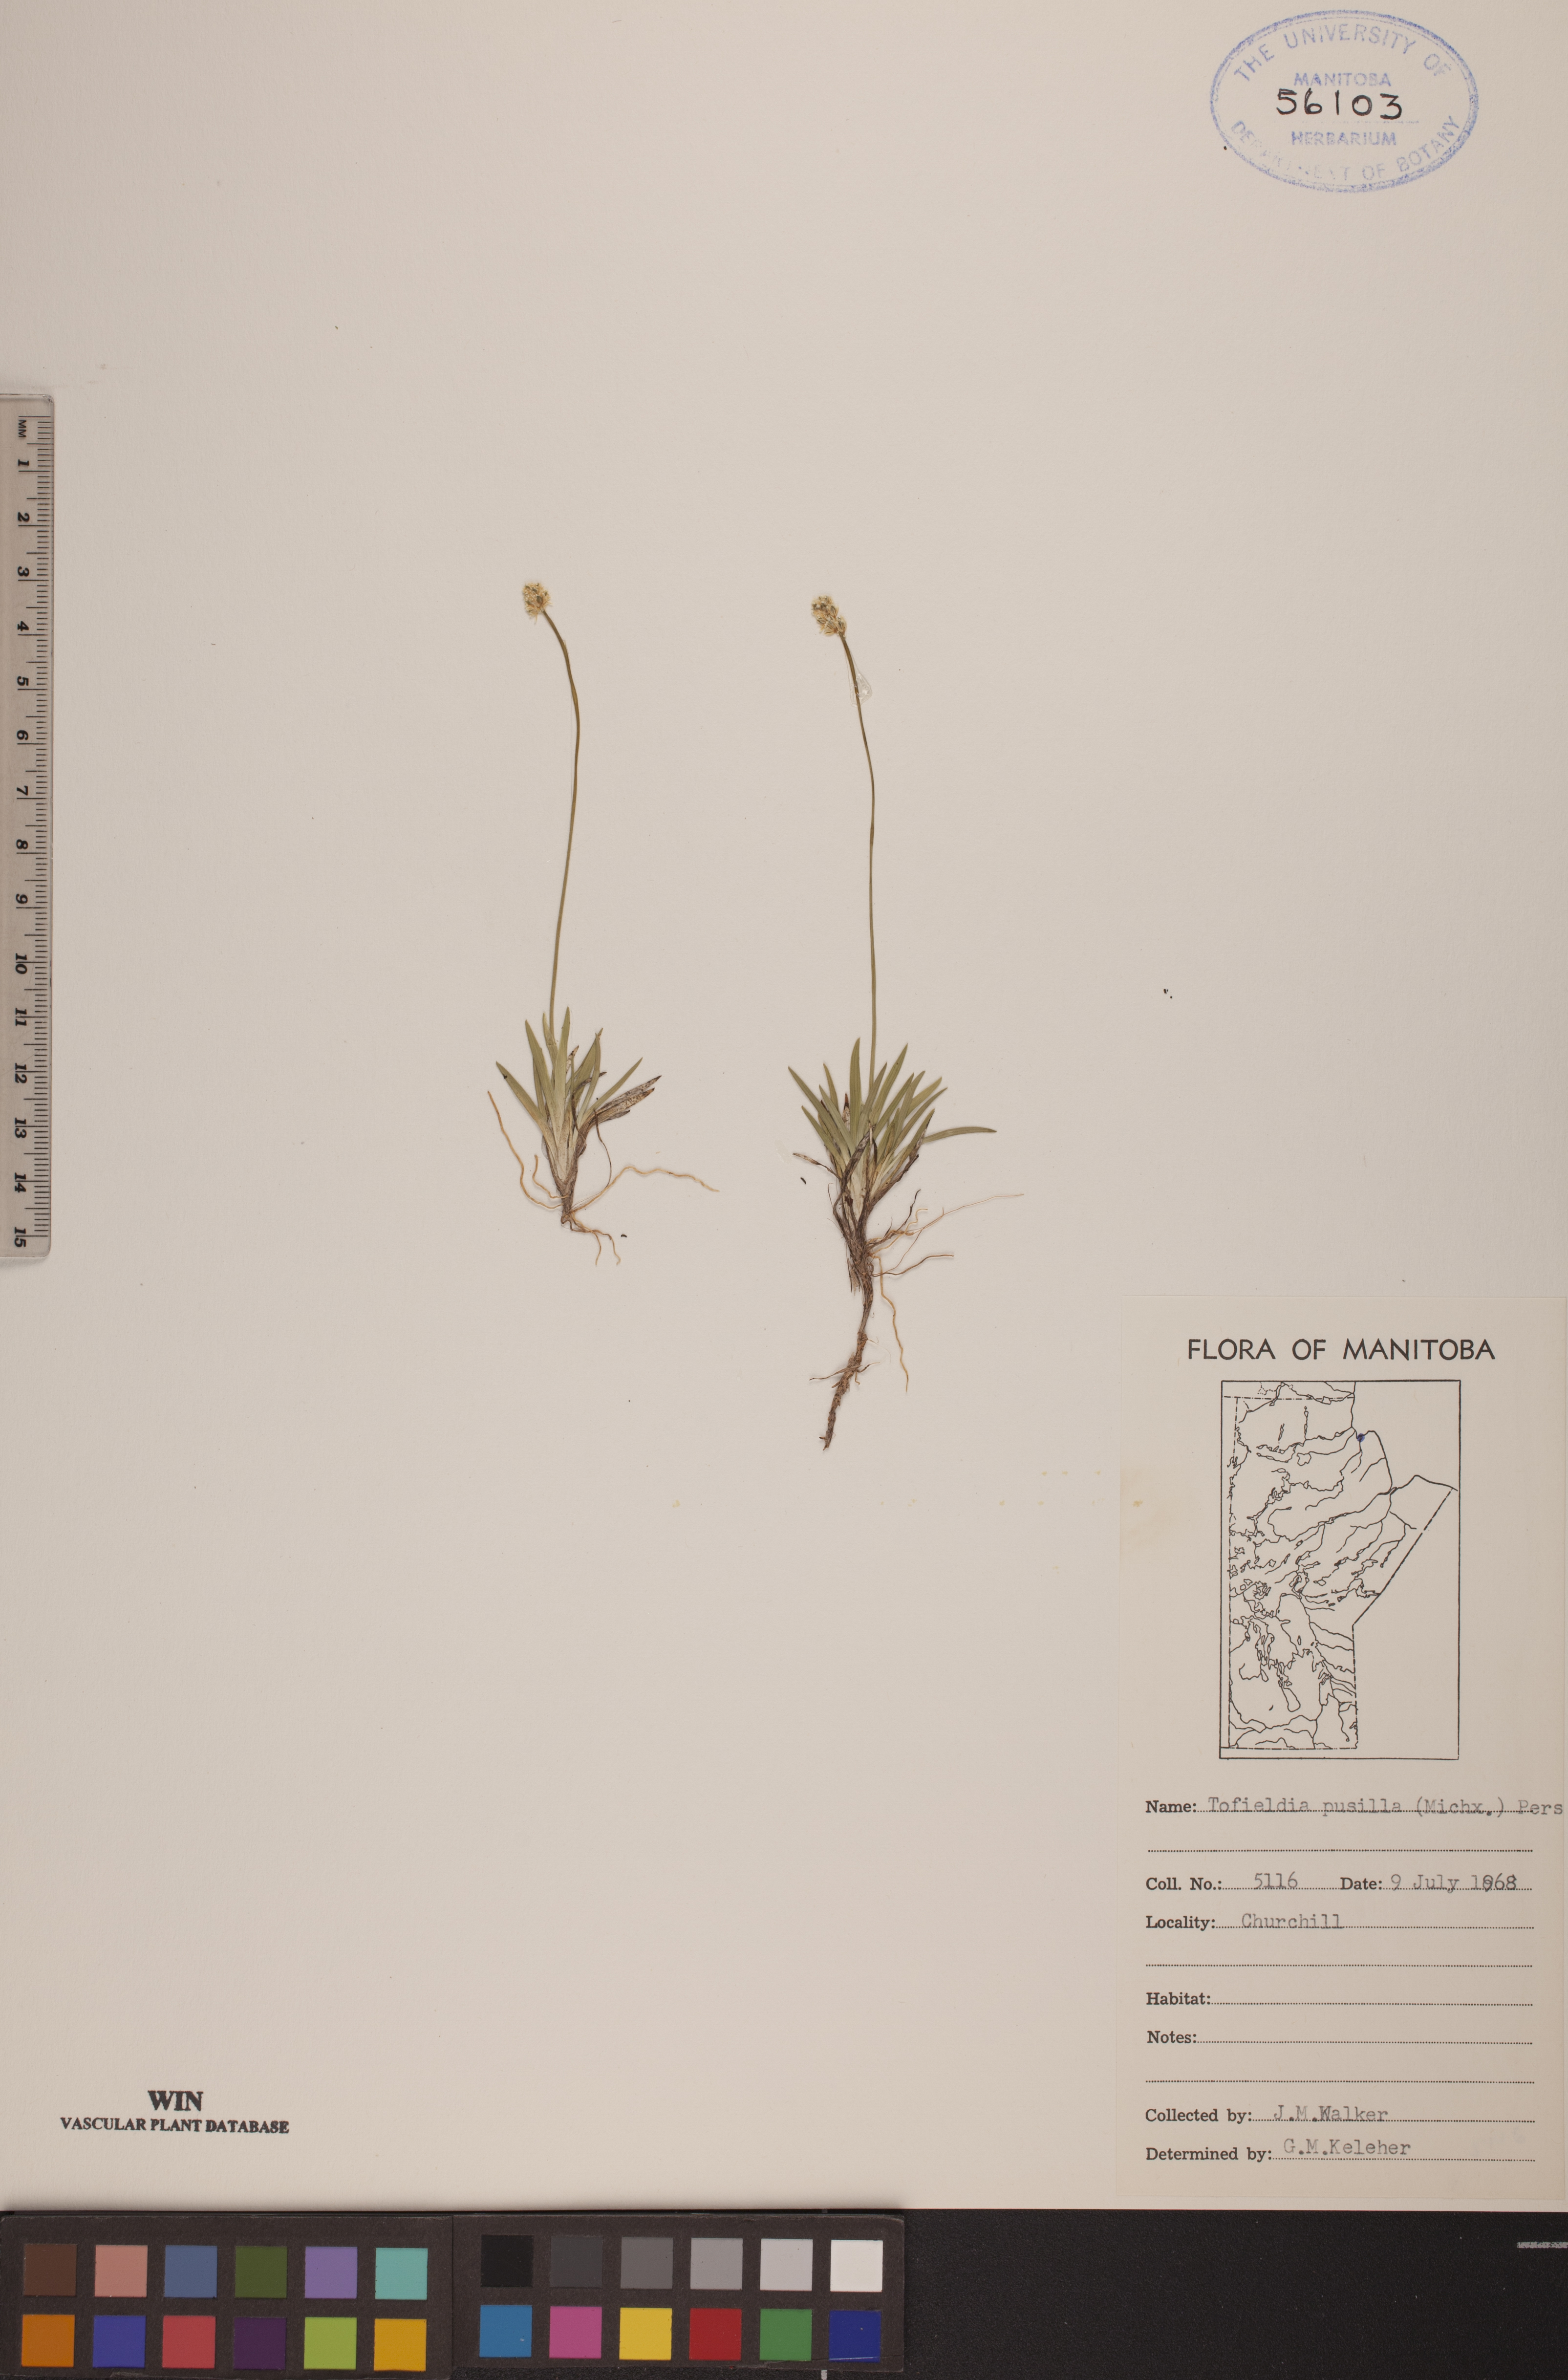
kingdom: Plantae
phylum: Tracheophyta
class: Liliopsida
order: Alismatales
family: Tofieldiaceae
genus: Tofieldia
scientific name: Tofieldia pusilla
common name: Scottish false asphodel
